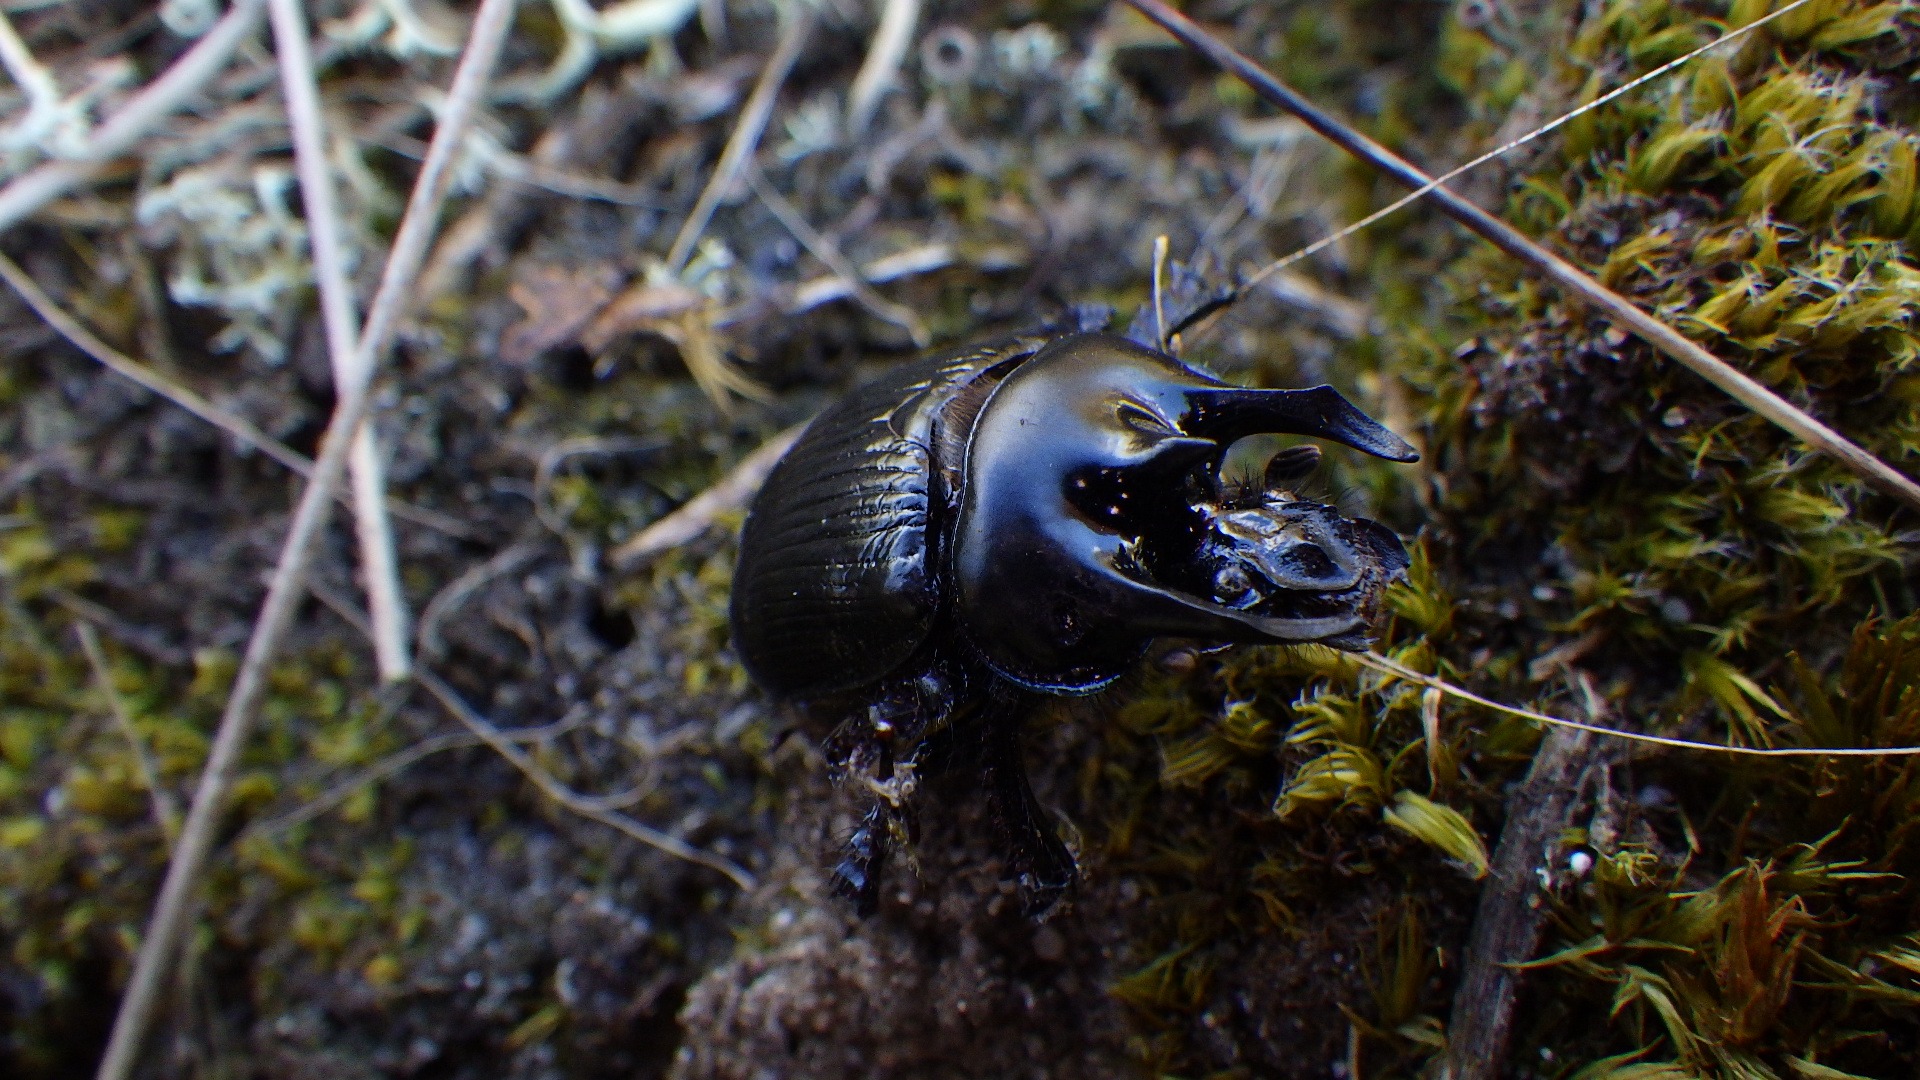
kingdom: Animalia
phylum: Arthropoda
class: Insecta
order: Coleoptera
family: Geotrupidae
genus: Typhaeus
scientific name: Typhaeus typhoeus
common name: Trehornet skarnbasse
